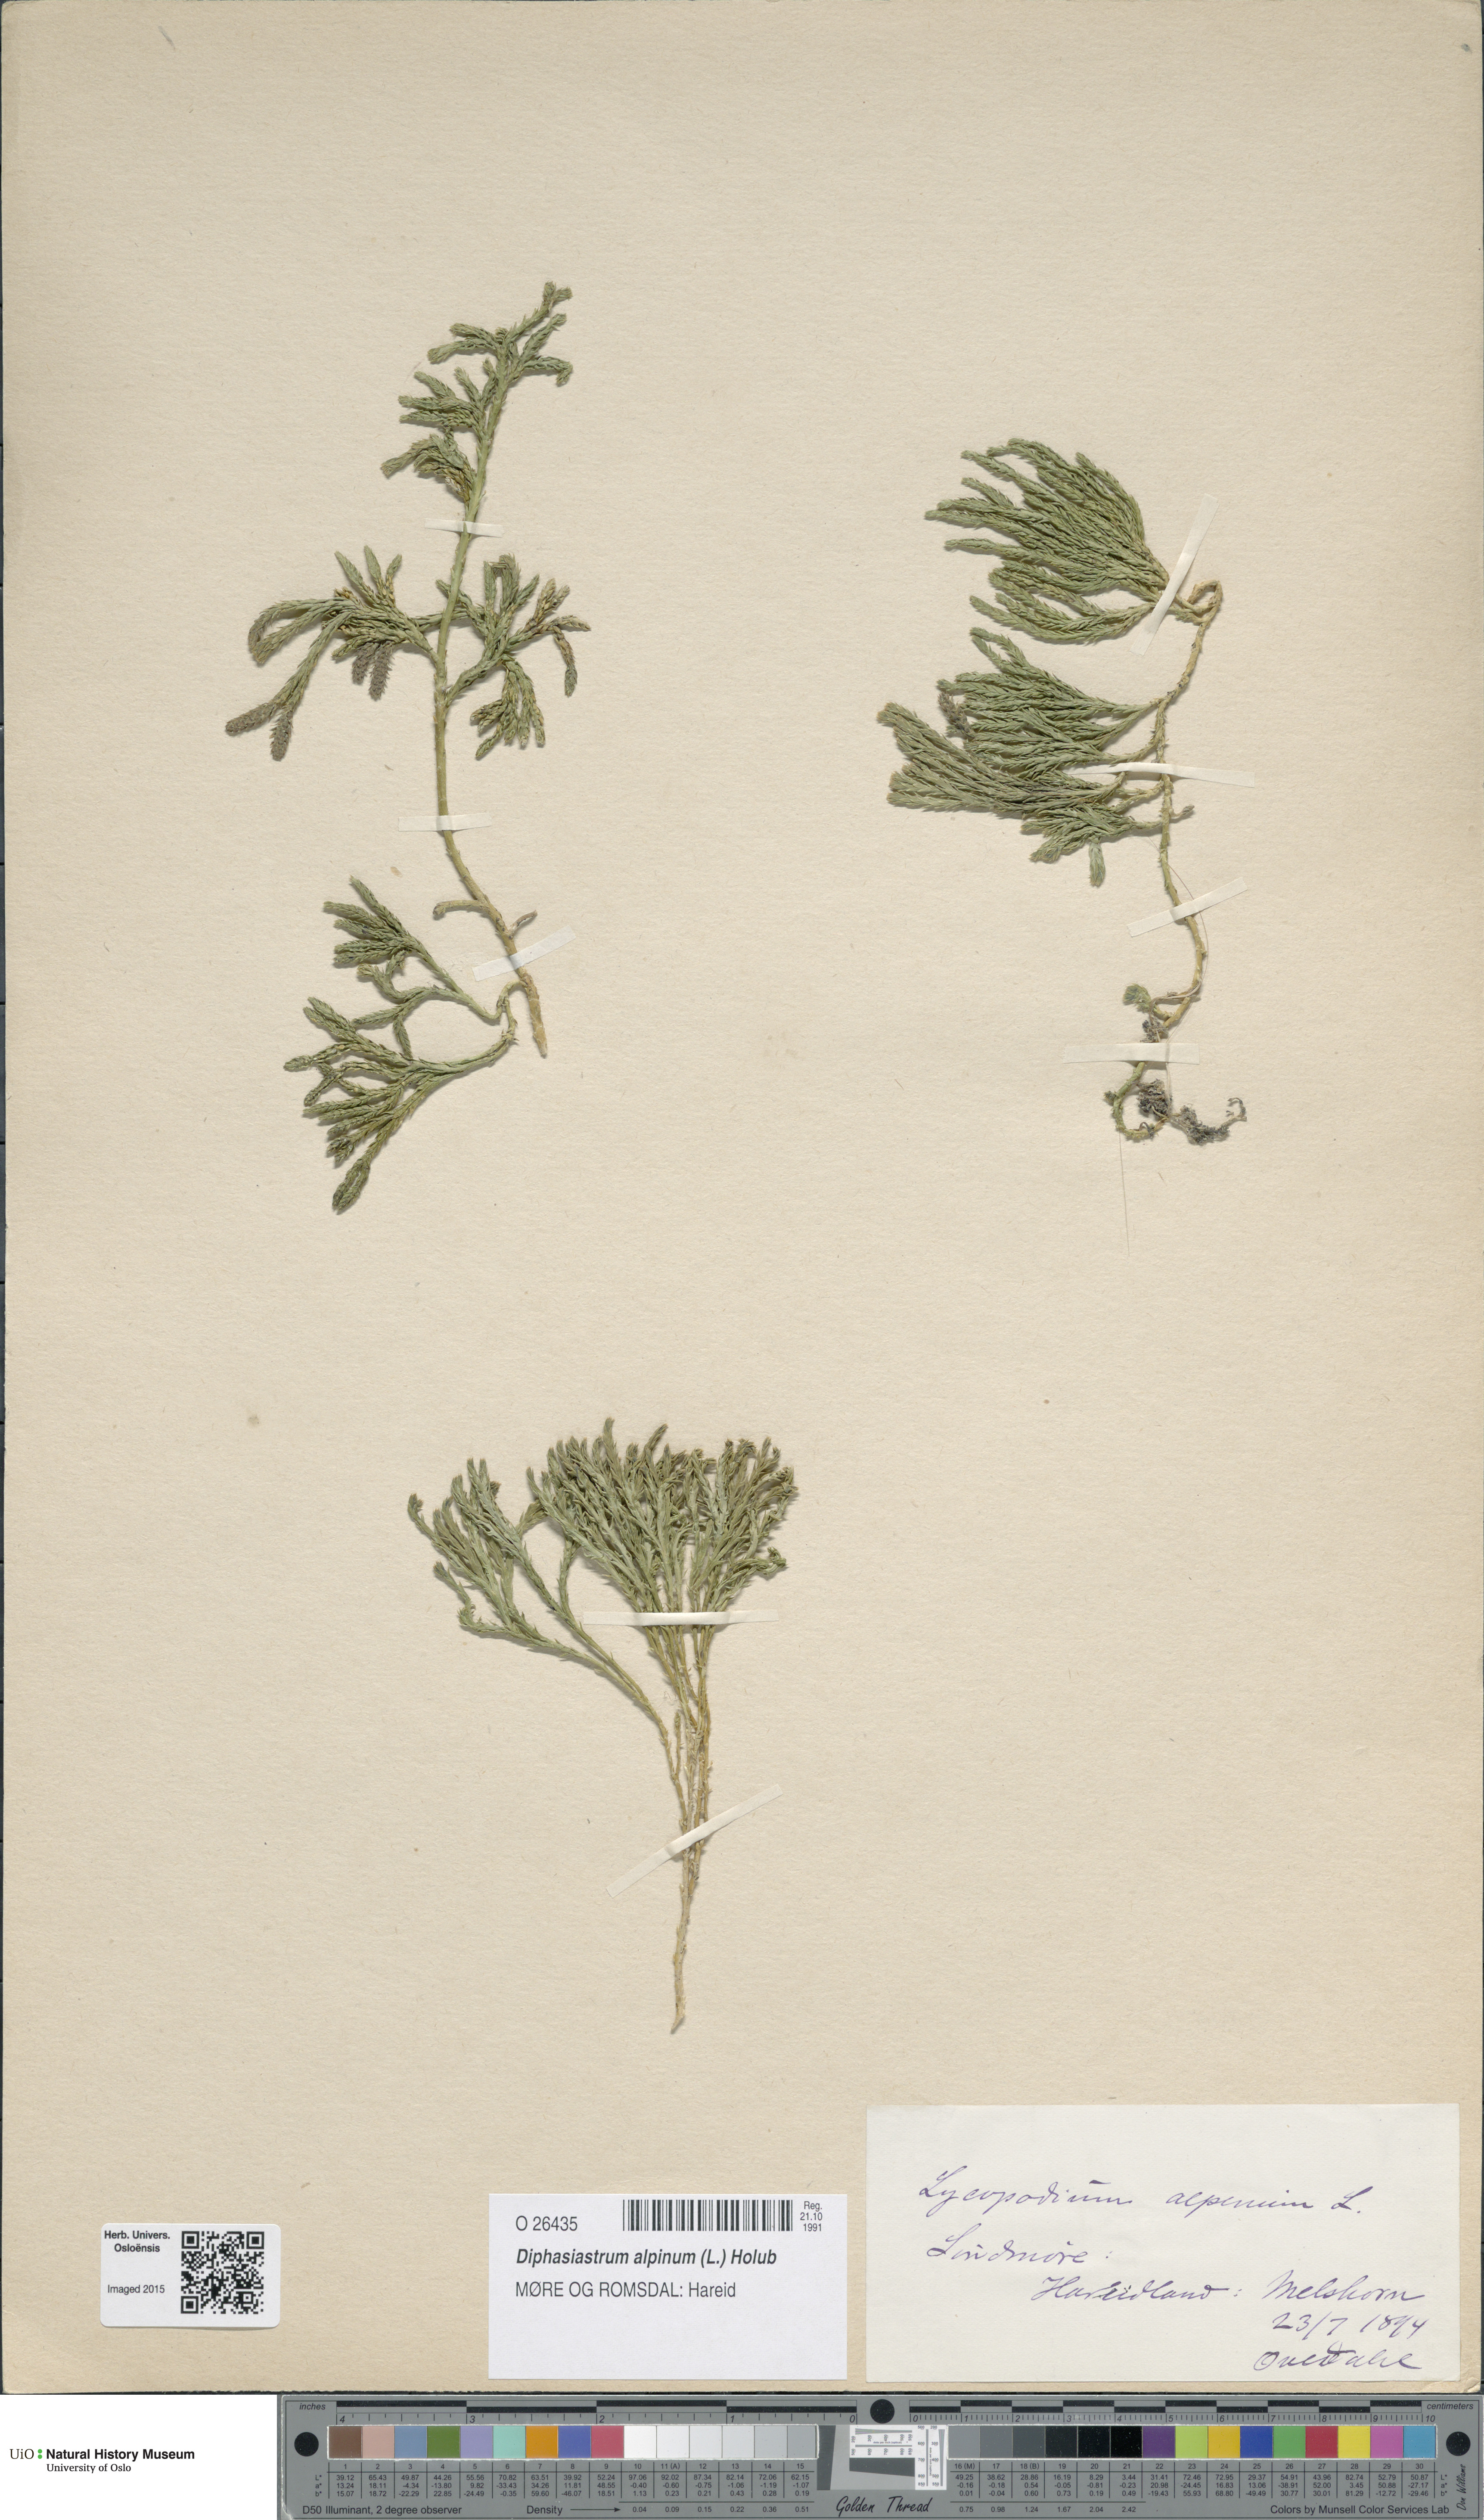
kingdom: Plantae
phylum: Tracheophyta
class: Lycopodiopsida
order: Lycopodiales
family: Lycopodiaceae
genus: Diphasiastrum
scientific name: Diphasiastrum alpinum
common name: Alpine clubmoss
